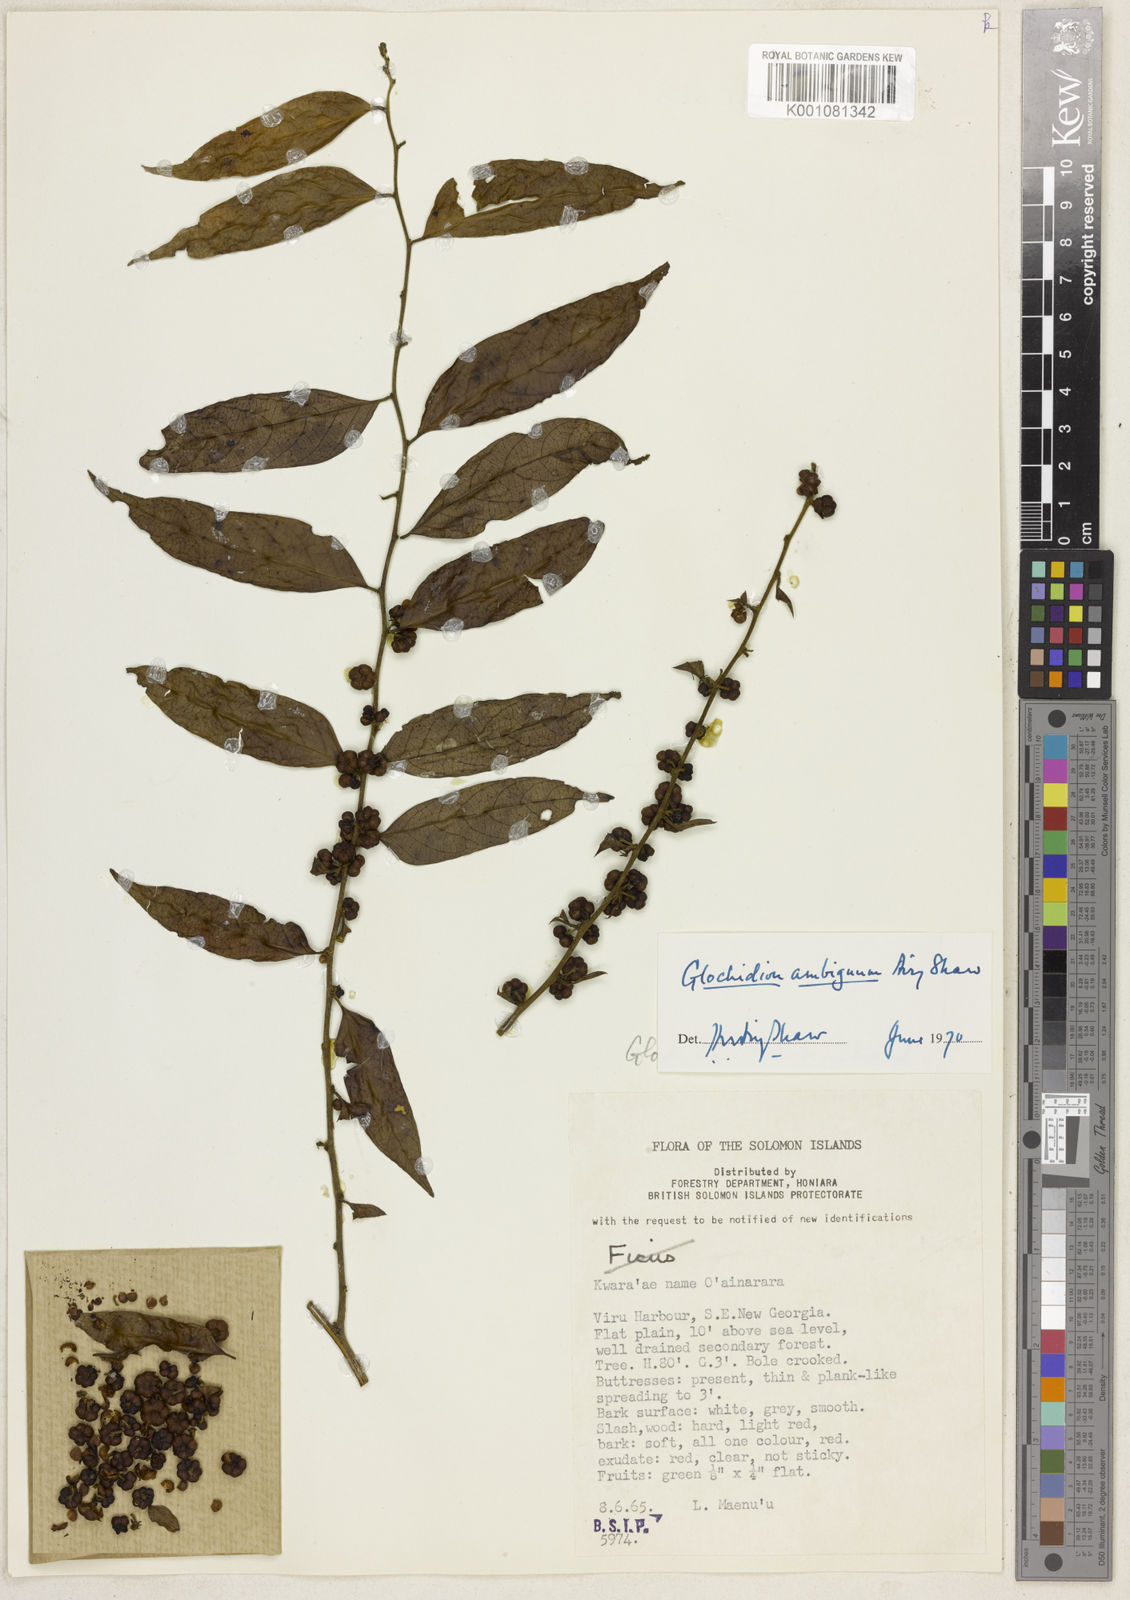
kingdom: Plantae
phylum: Tracheophyta
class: Magnoliopsida
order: Malpighiales
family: Phyllanthaceae
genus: Glochidion
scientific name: Glochidion ambiguum
